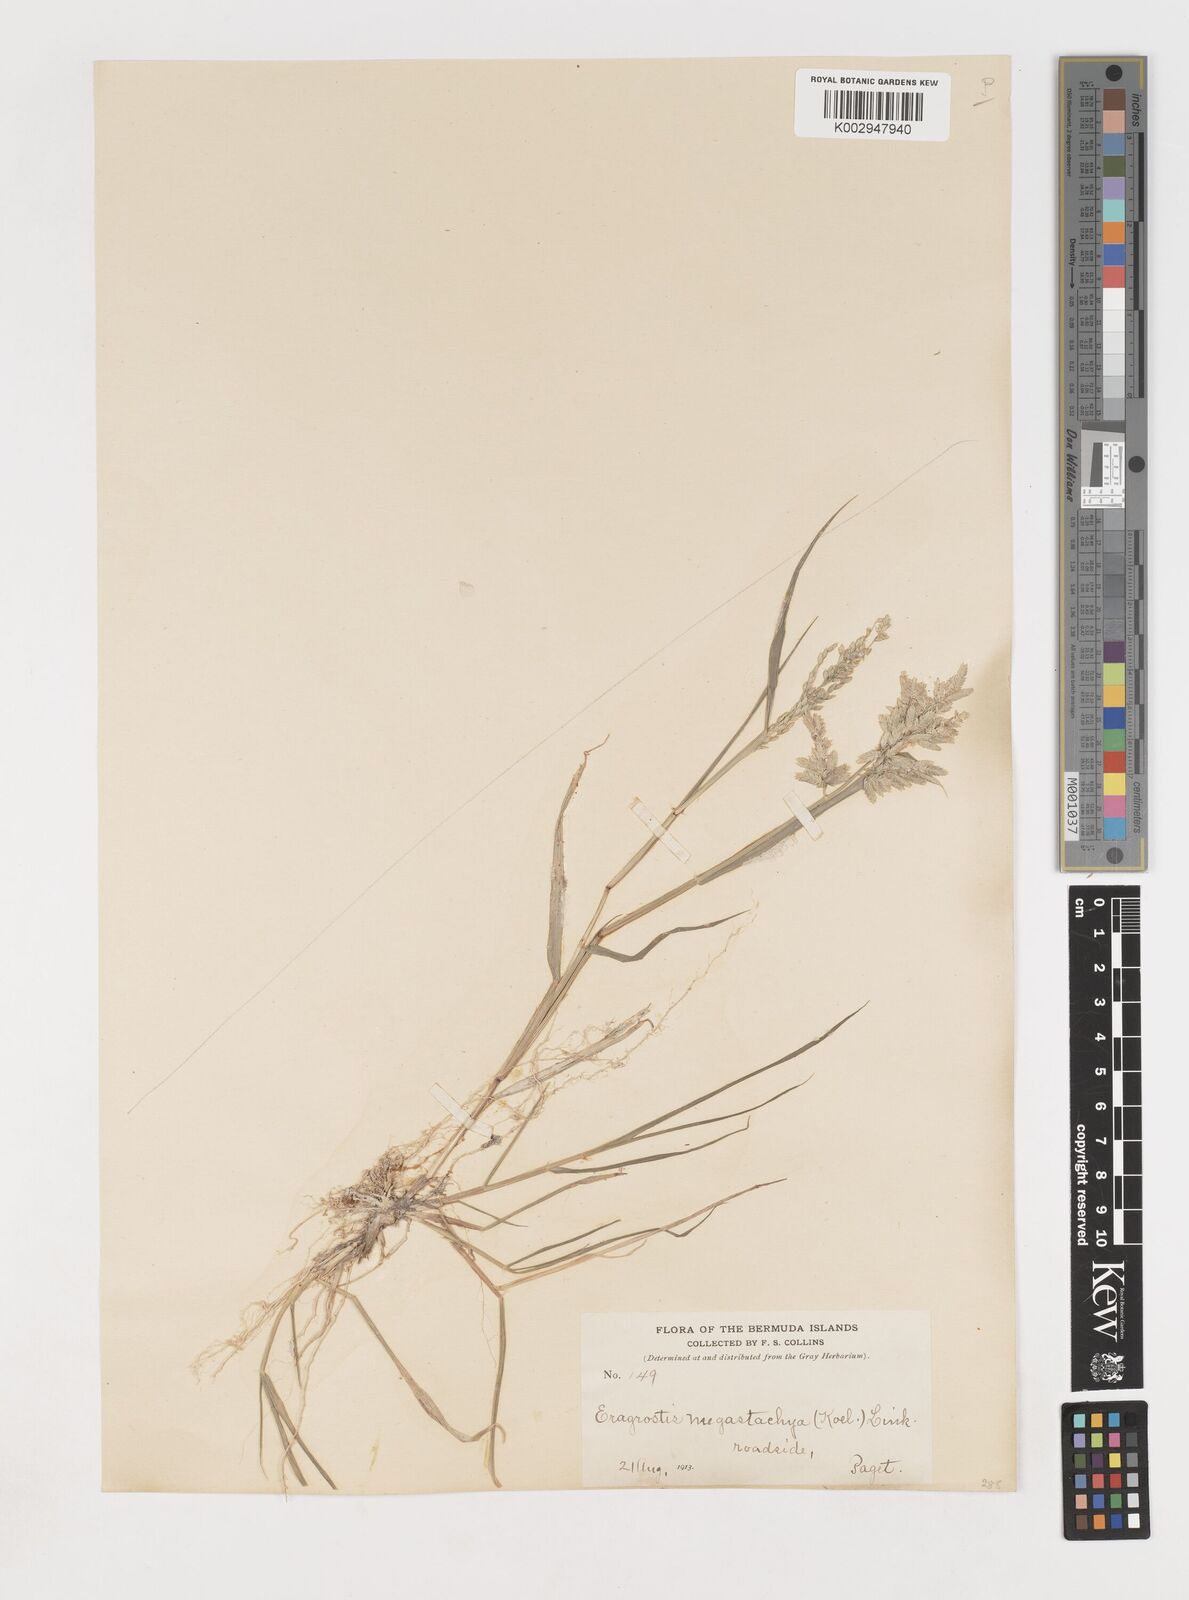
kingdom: Plantae
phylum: Tracheophyta
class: Liliopsida
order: Poales
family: Poaceae
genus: Eragrostis
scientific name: Eragrostis
